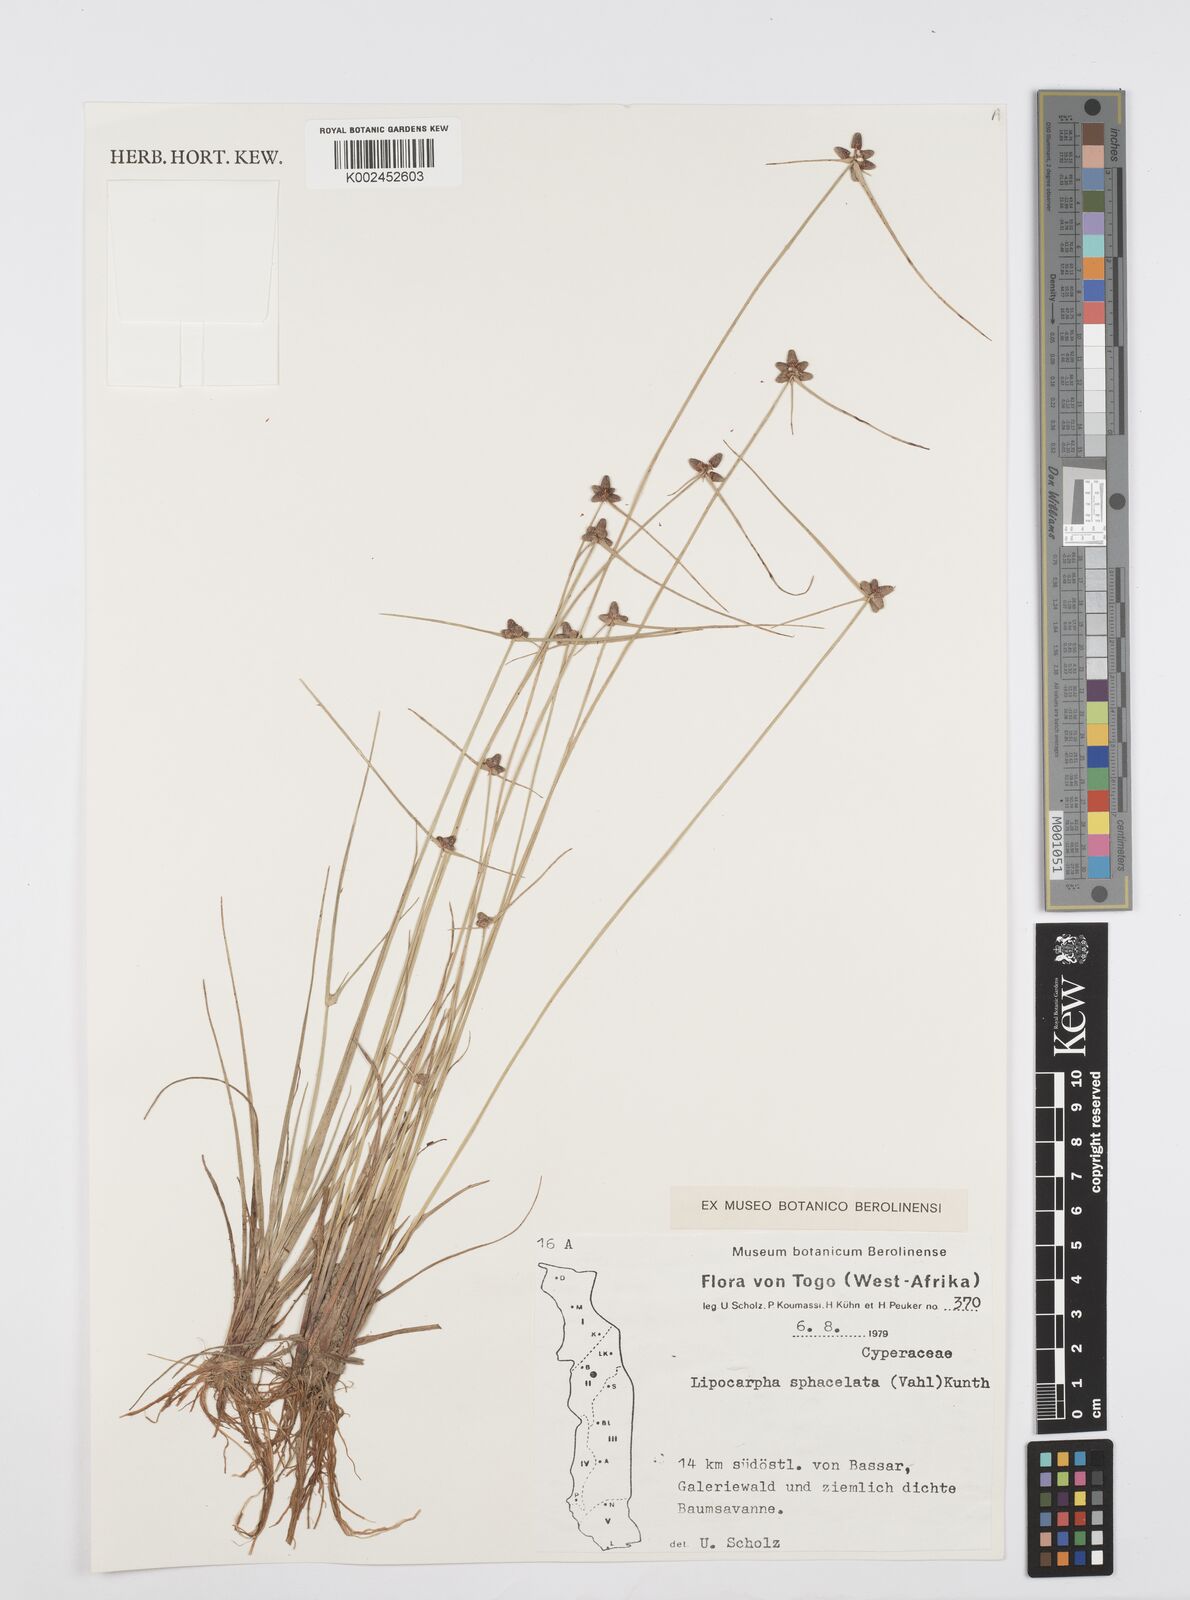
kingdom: Plantae
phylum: Tracheophyta
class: Liliopsida
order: Poales
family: Cyperaceae
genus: Cyperus
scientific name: Cyperus sphacelatus
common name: Roadside flatsedge
